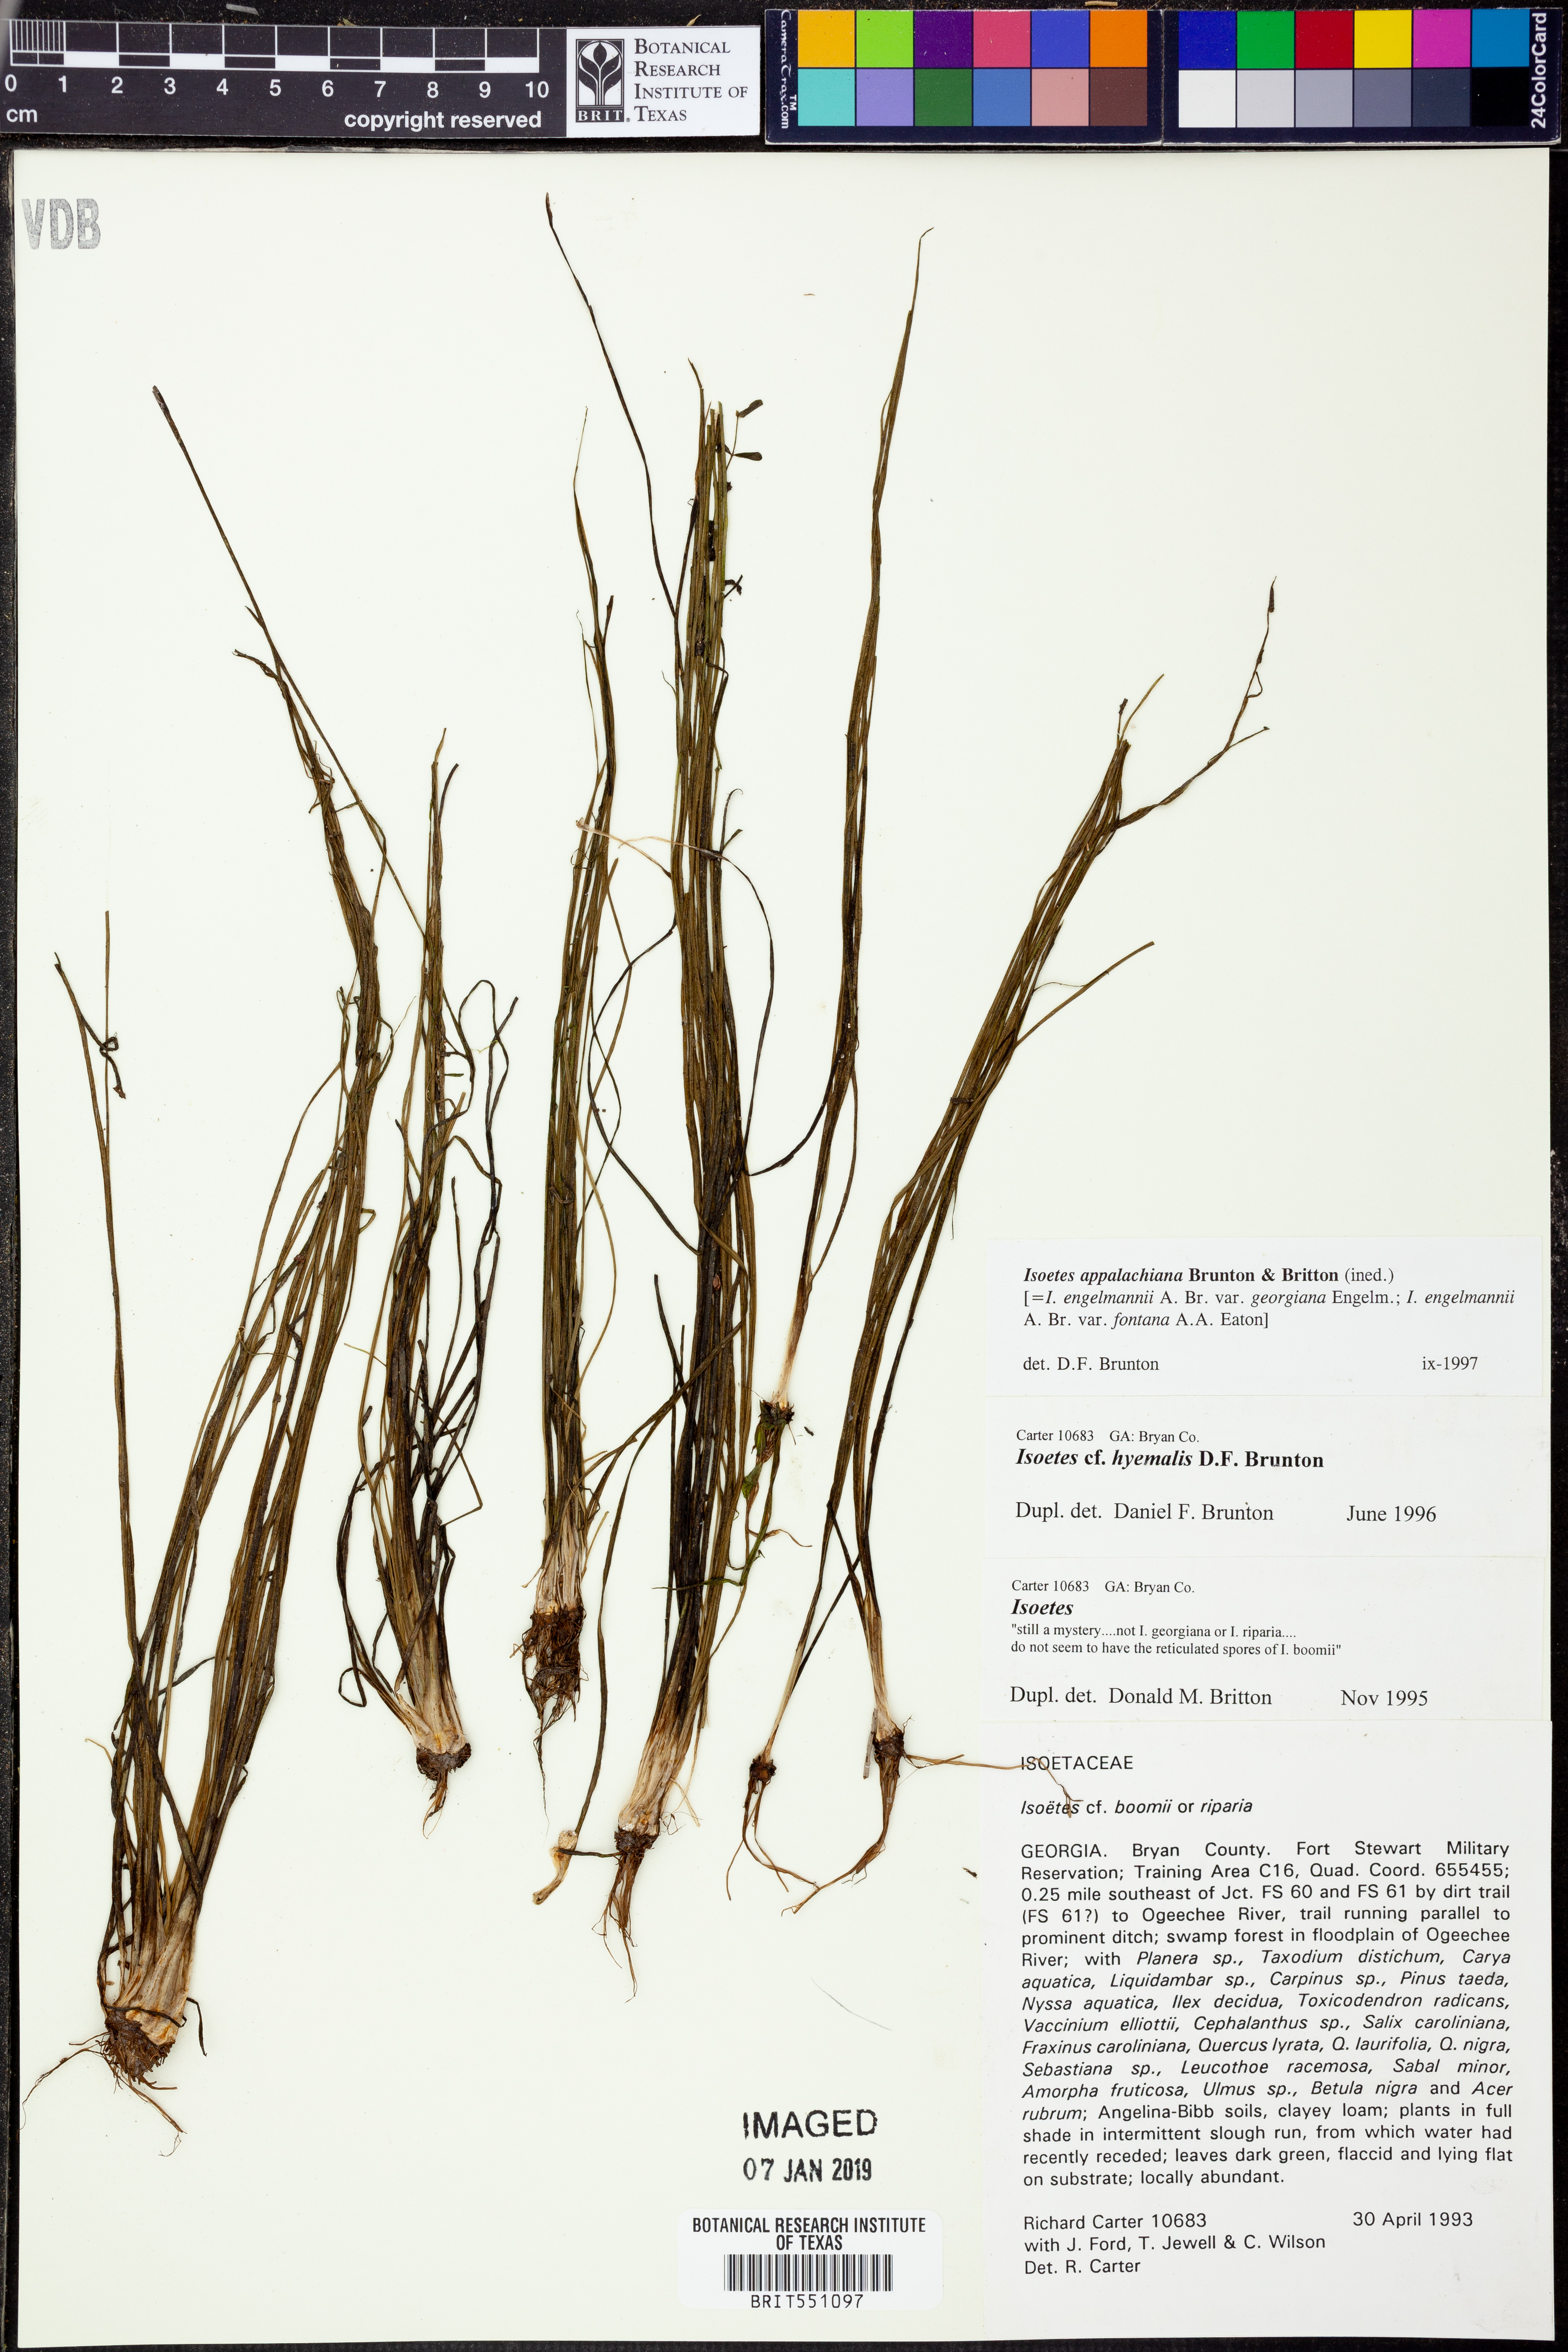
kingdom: Plantae
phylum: Tracheophyta
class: Lycopodiopsida
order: Isoetales
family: Isoetaceae
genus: Isoetes
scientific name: Isoetes appalachiana
